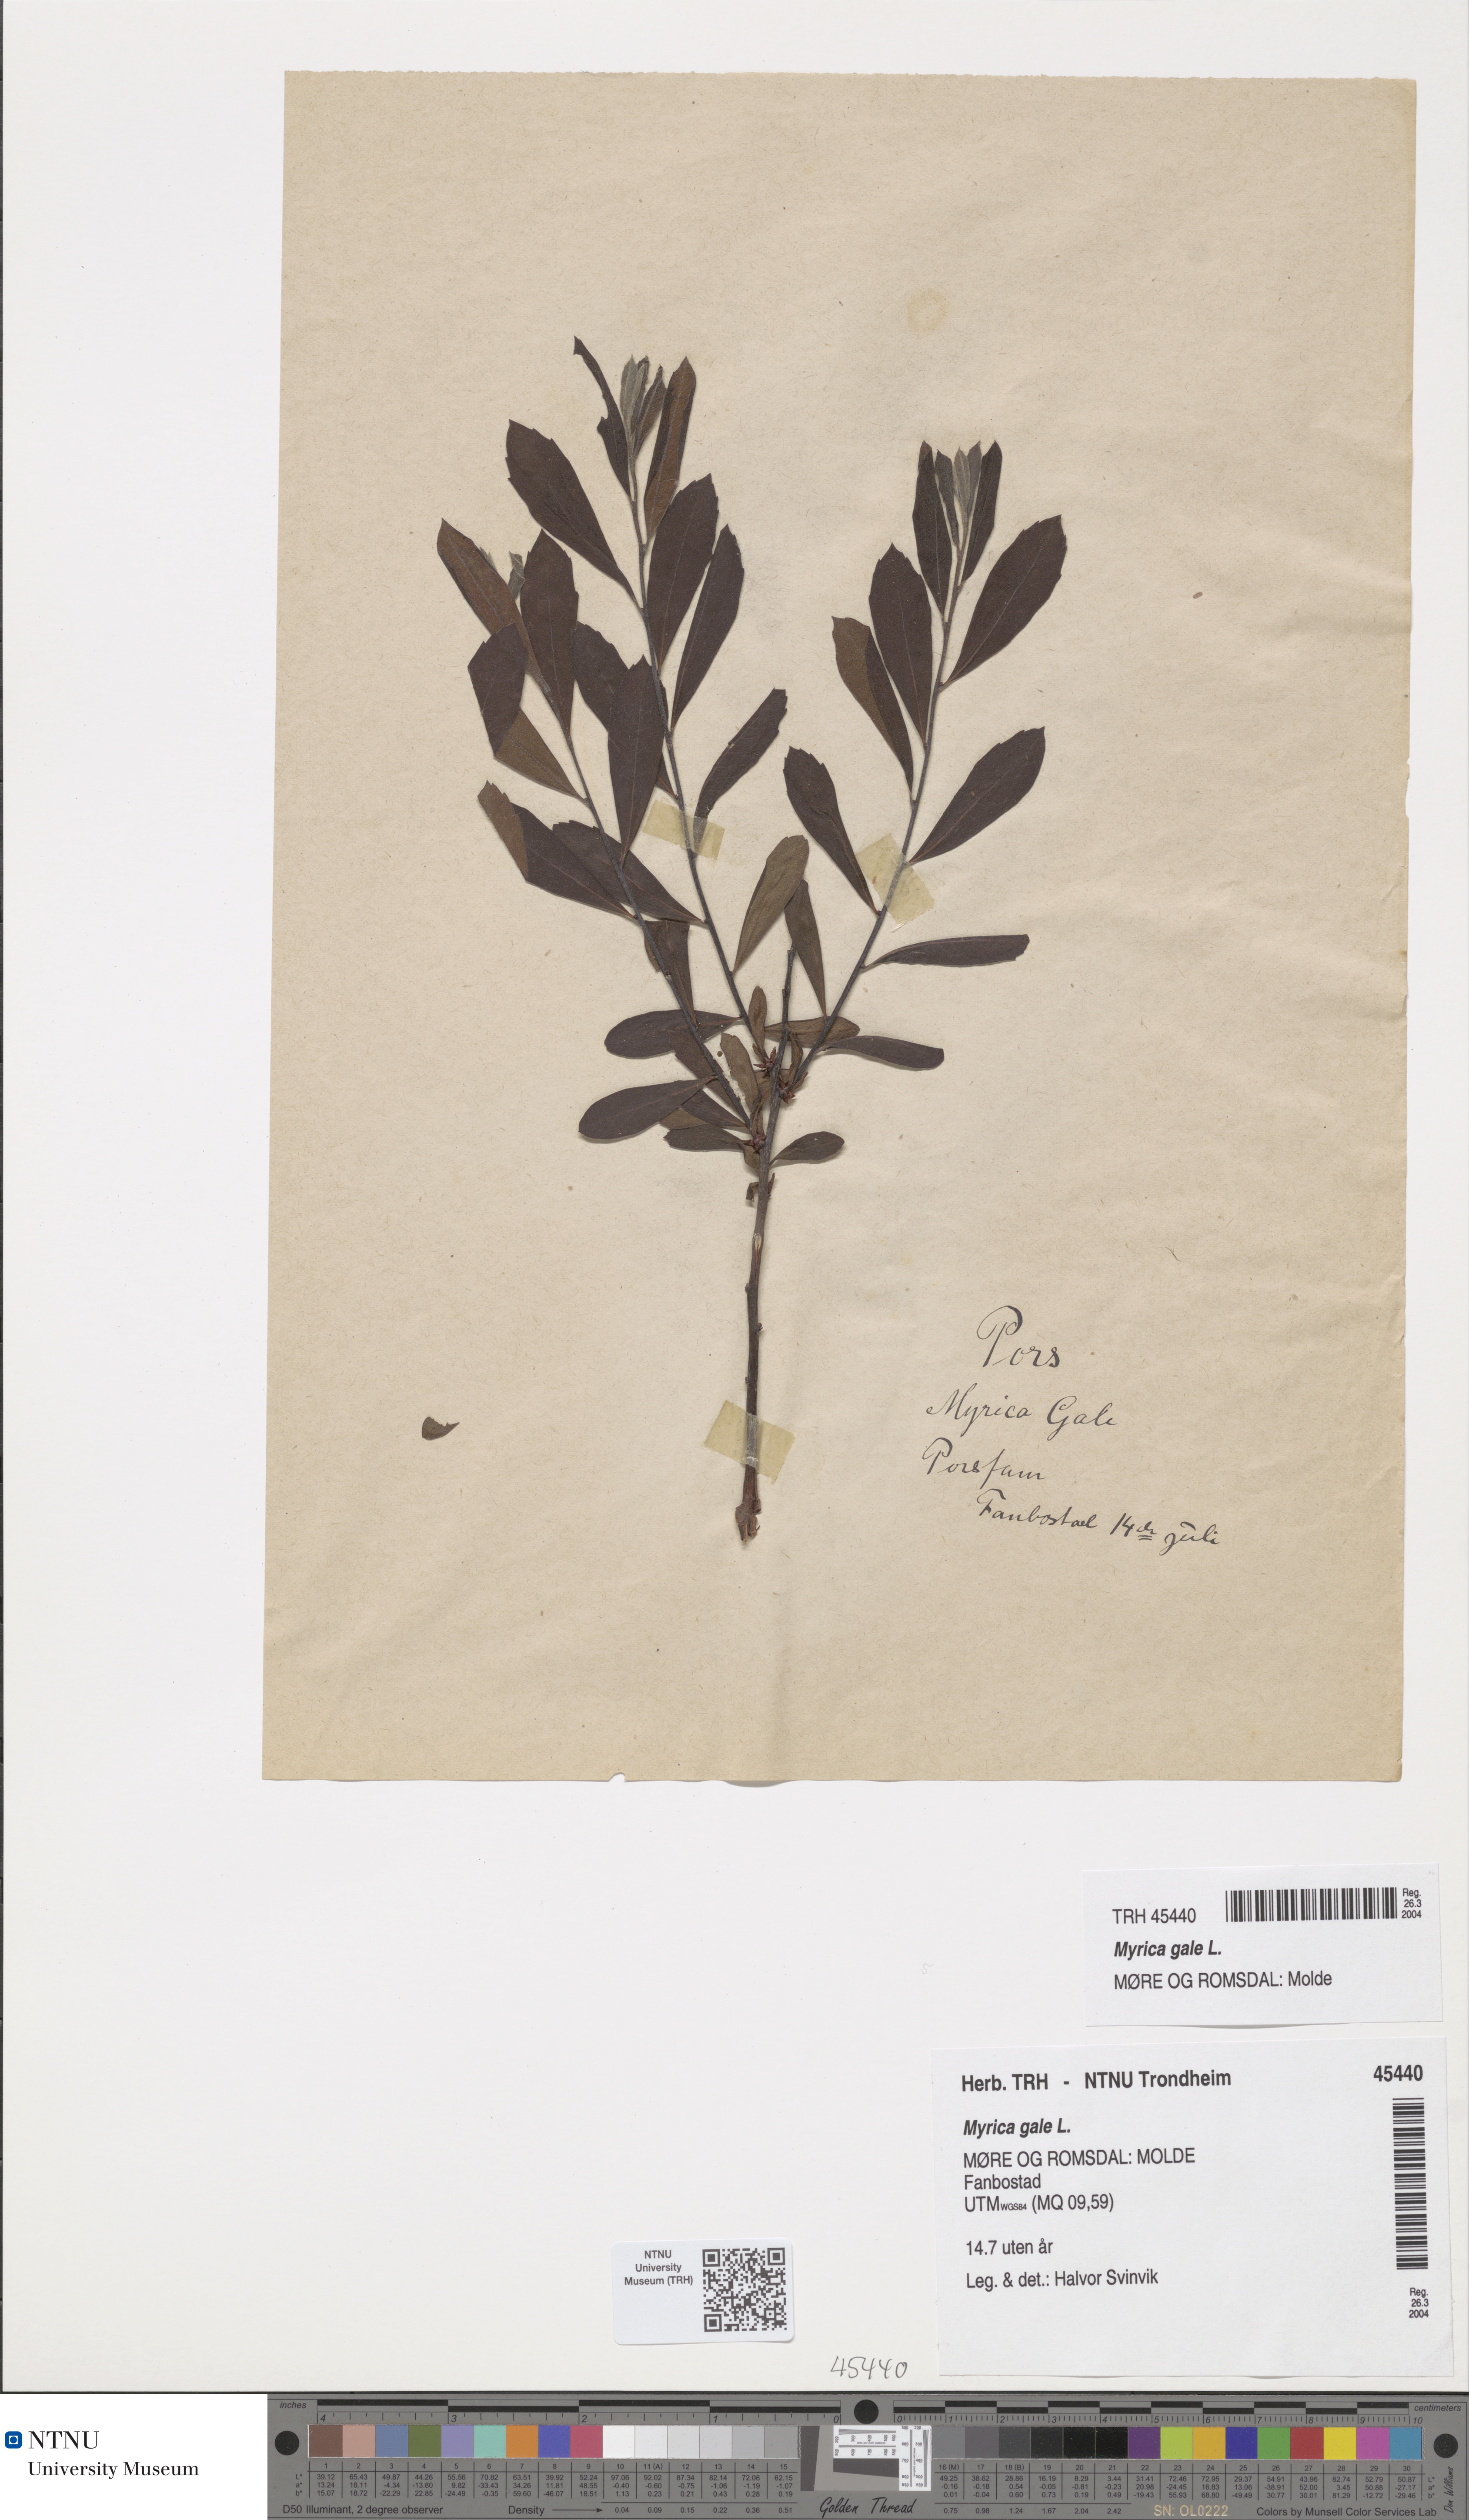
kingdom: Plantae
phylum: Tracheophyta
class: Magnoliopsida
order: Fagales
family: Myricaceae
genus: Myrica
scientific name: Myrica gale
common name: Sweet gale
